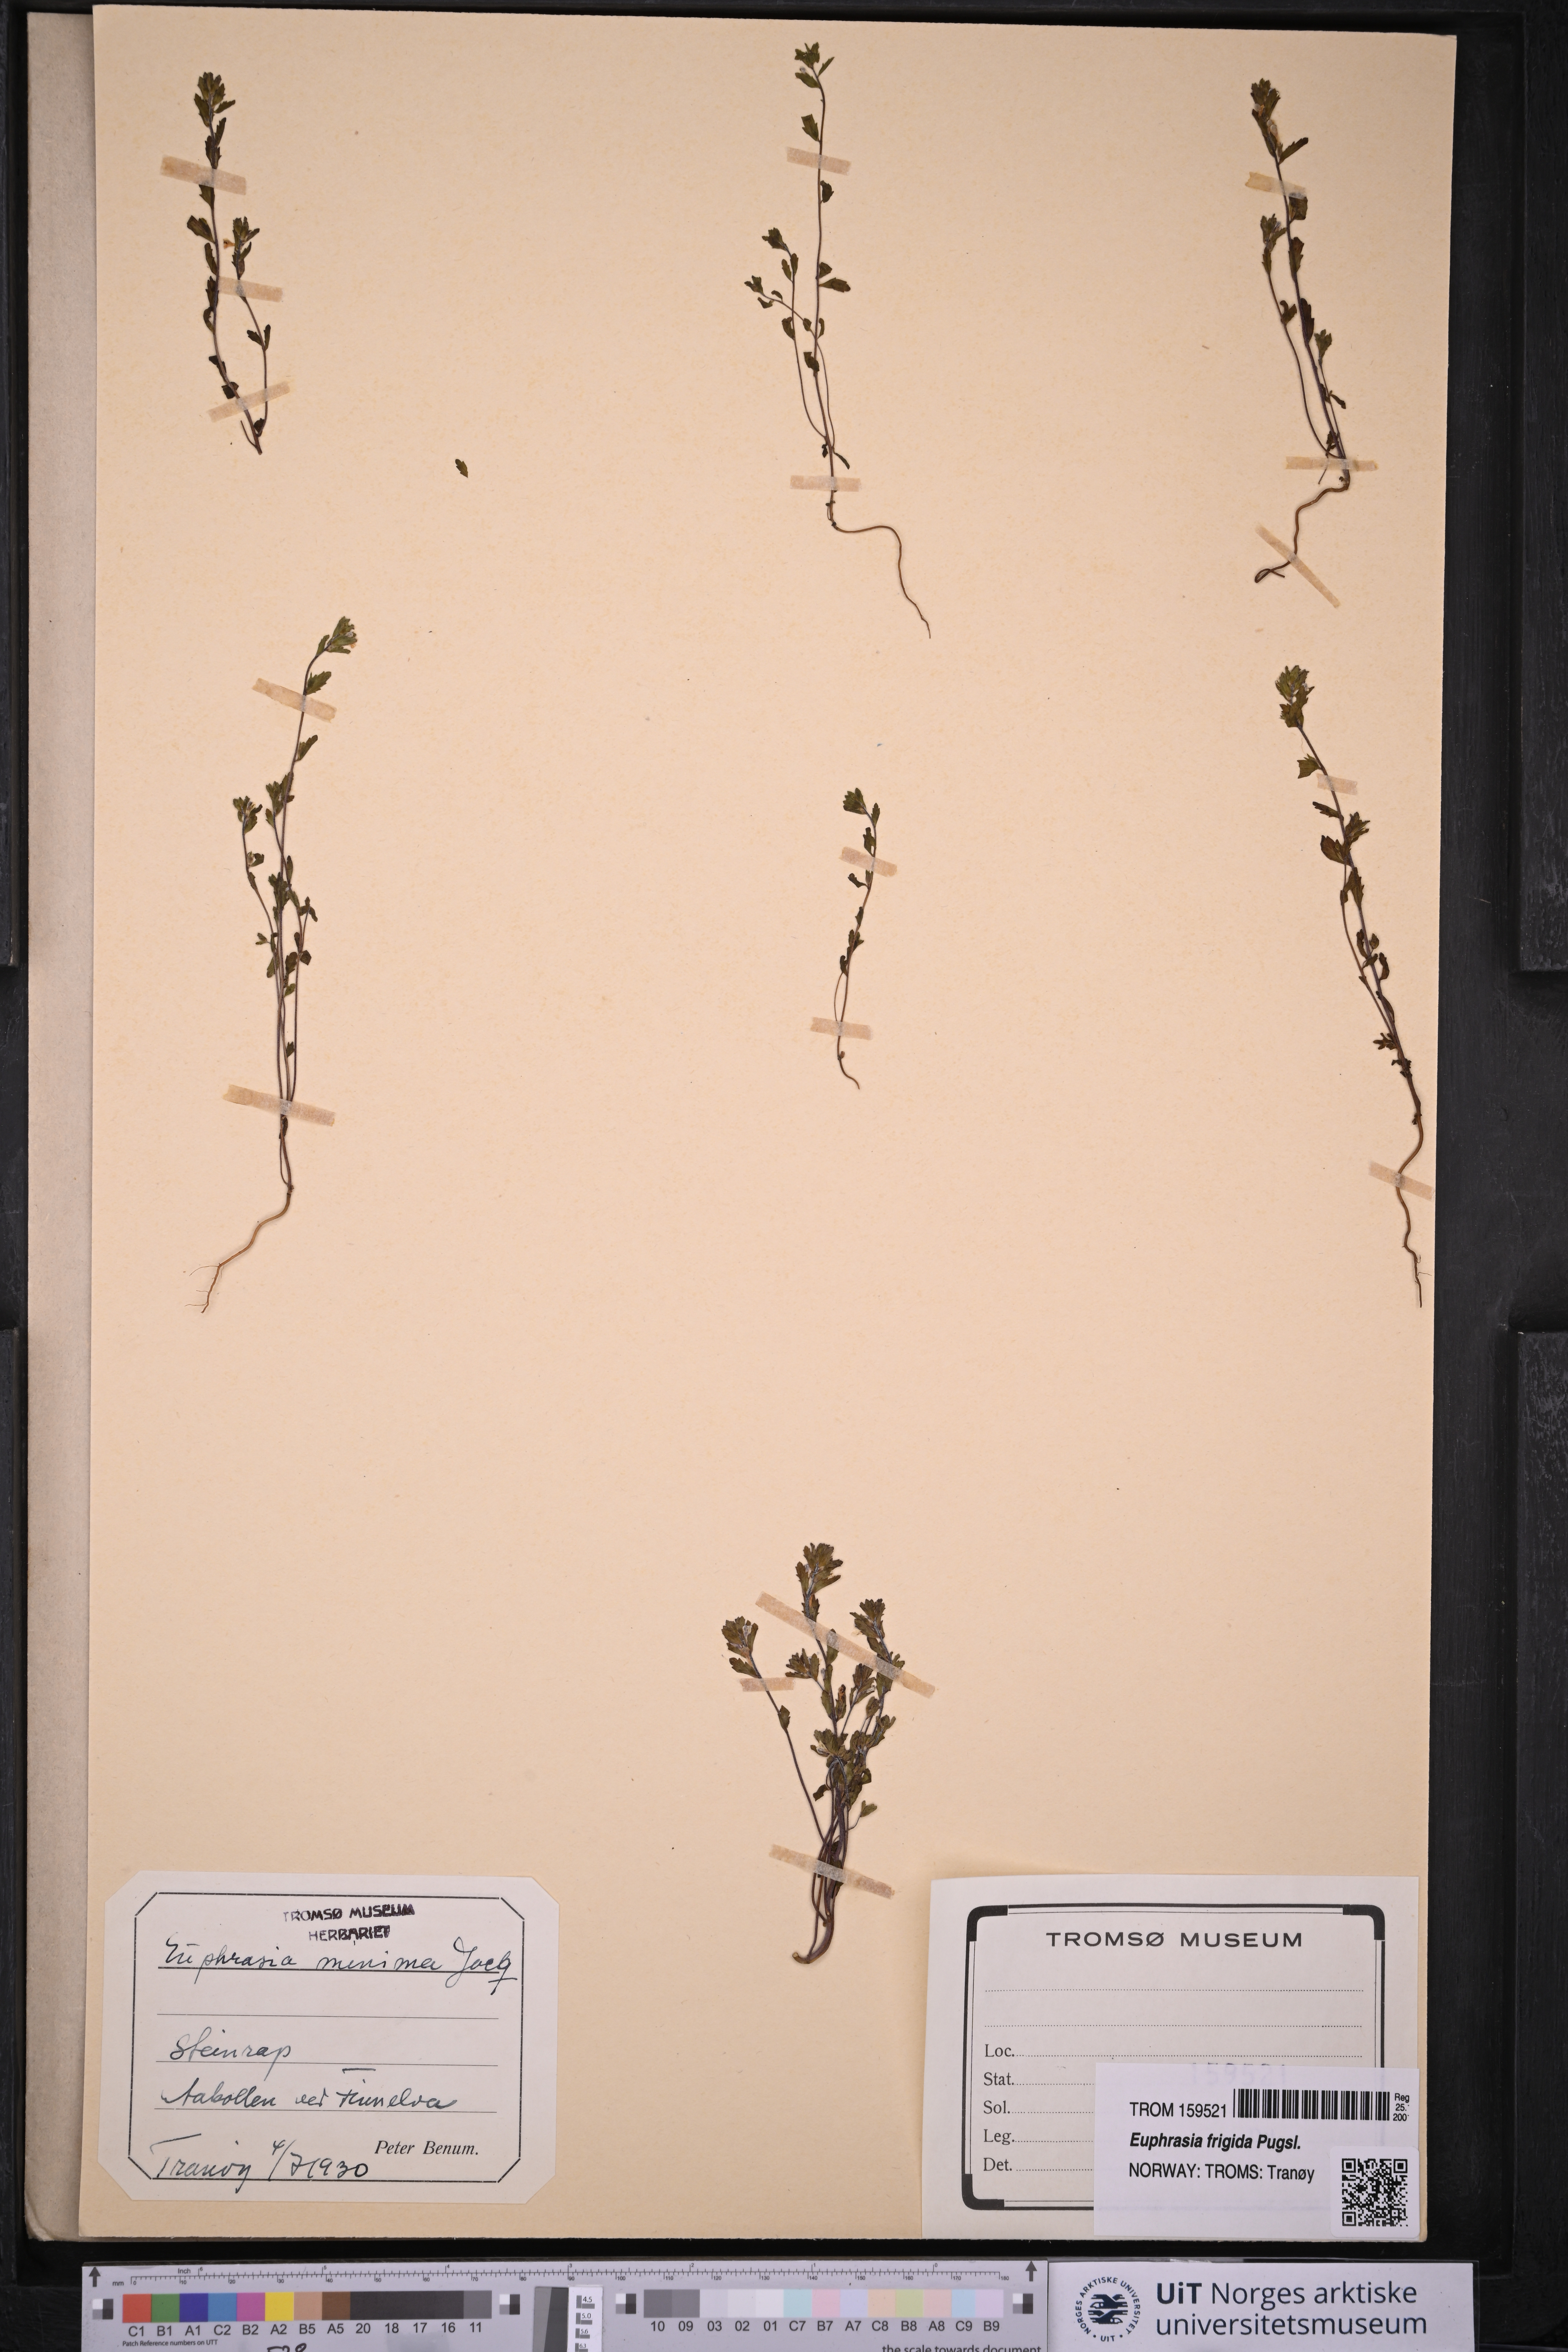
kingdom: Plantae
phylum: Tracheophyta
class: Magnoliopsida
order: Lamiales
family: Orobanchaceae
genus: Euphrasia
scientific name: Euphrasia wettsteinii
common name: Wettstein's eyebright
